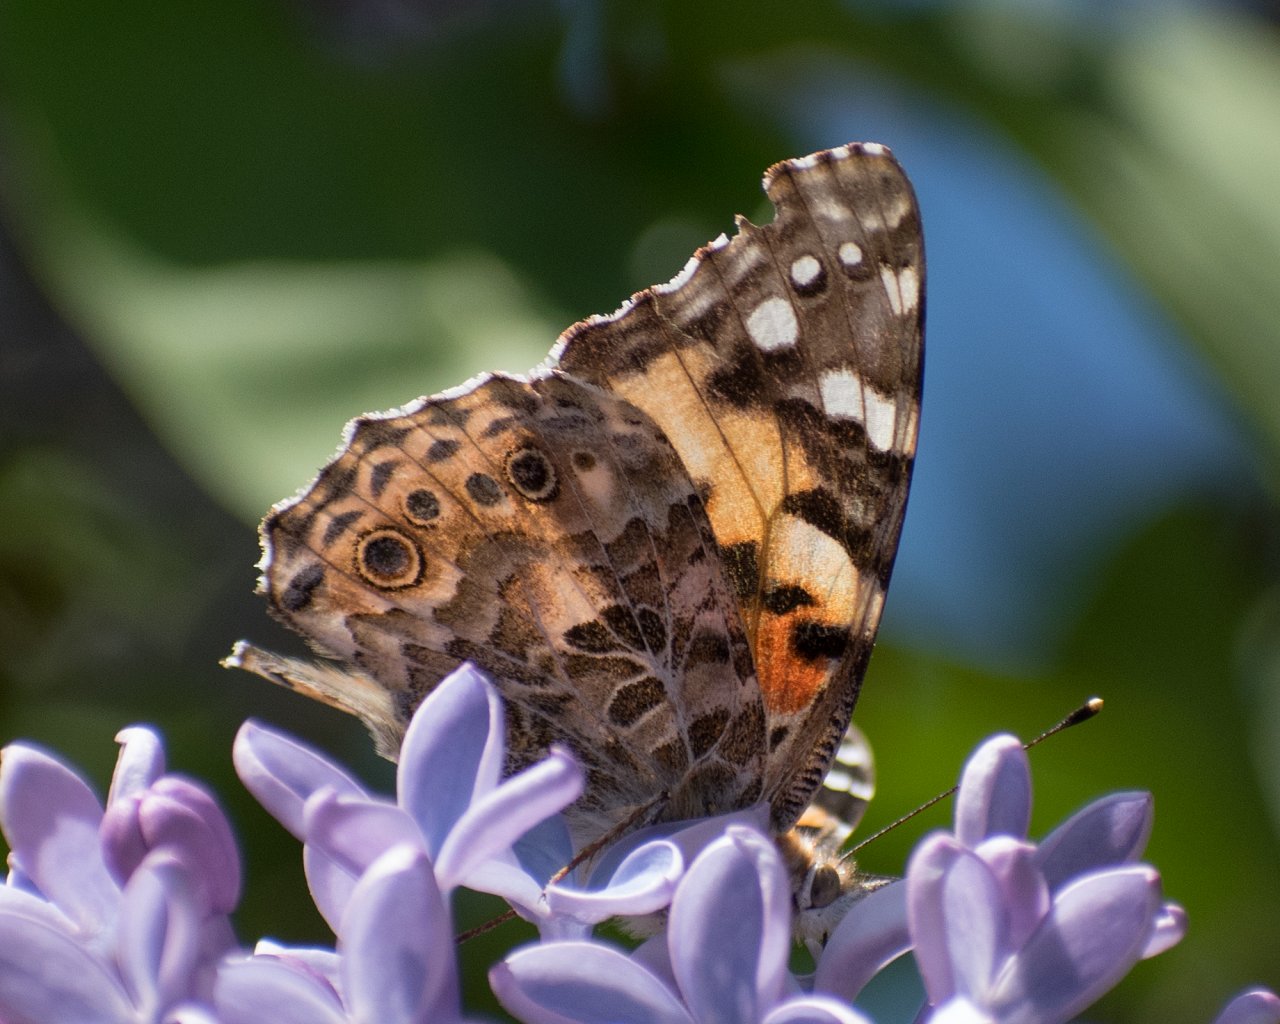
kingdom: Animalia
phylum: Arthropoda
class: Insecta
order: Lepidoptera
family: Nymphalidae
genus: Vanessa
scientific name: Vanessa cardui
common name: Painted Lady
